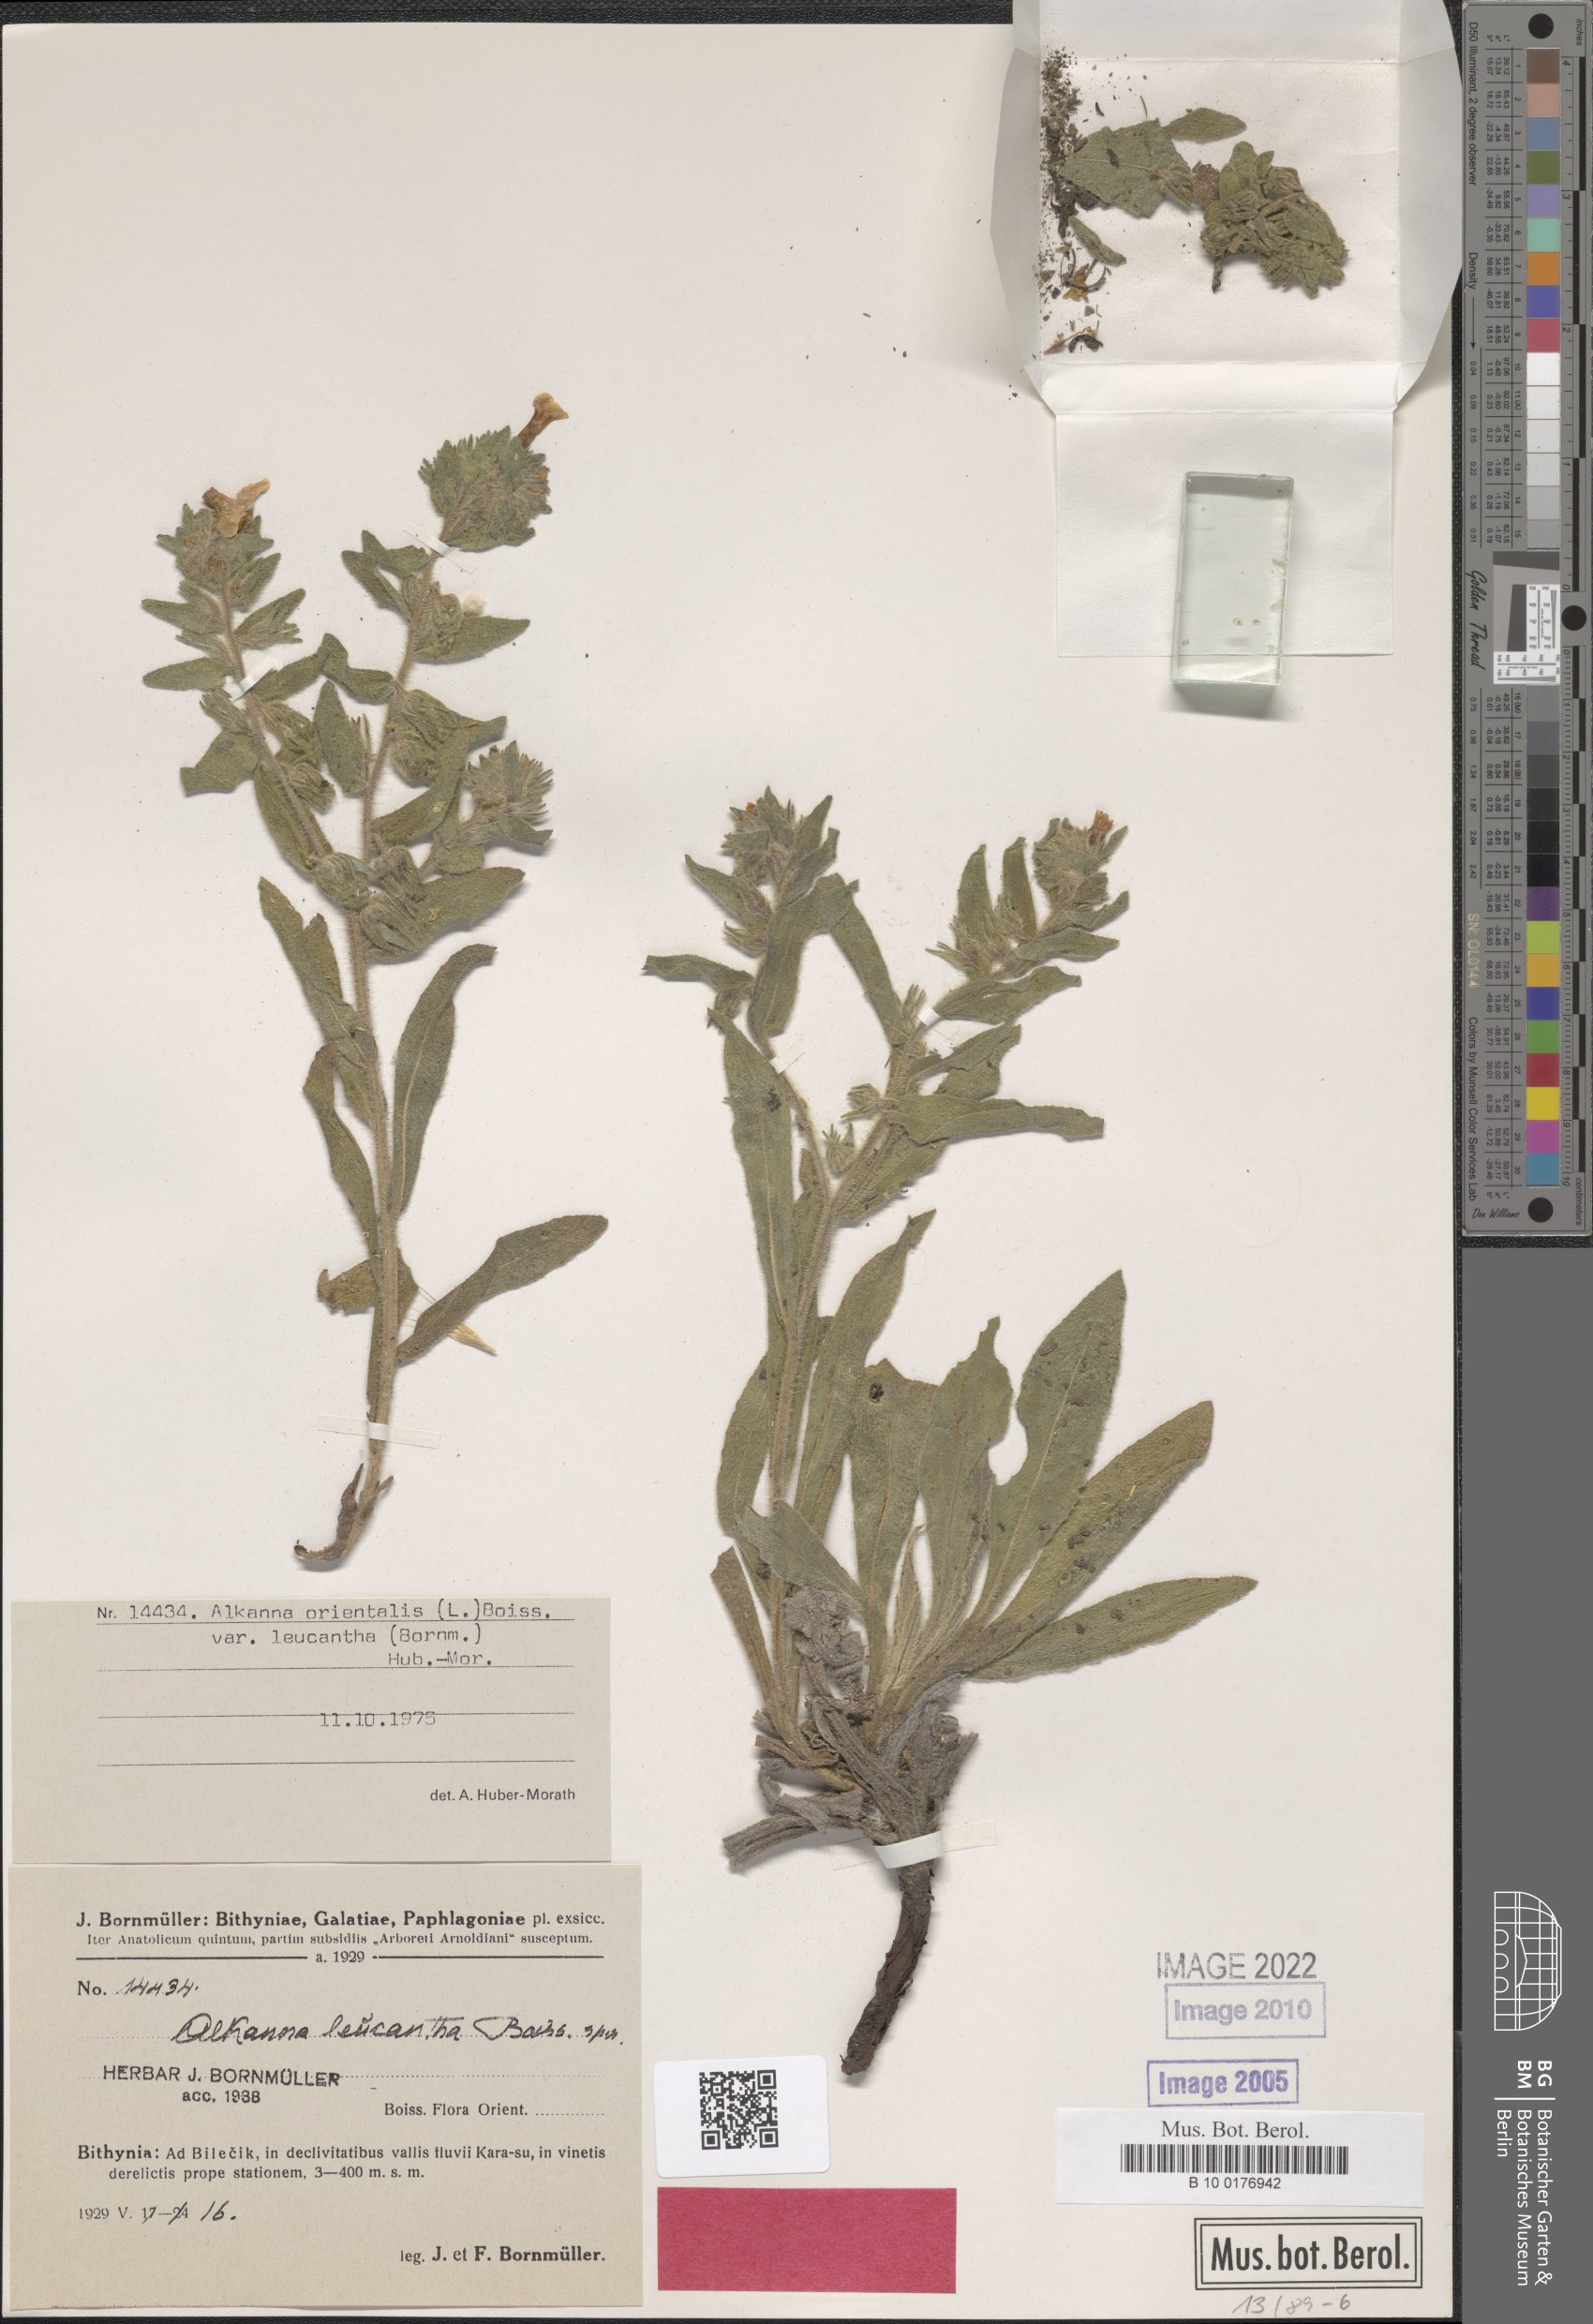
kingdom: Plantae
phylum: Tracheophyta
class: Magnoliopsida
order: Boraginales
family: Boraginaceae
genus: Alkanna
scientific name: Alkanna orientalis
